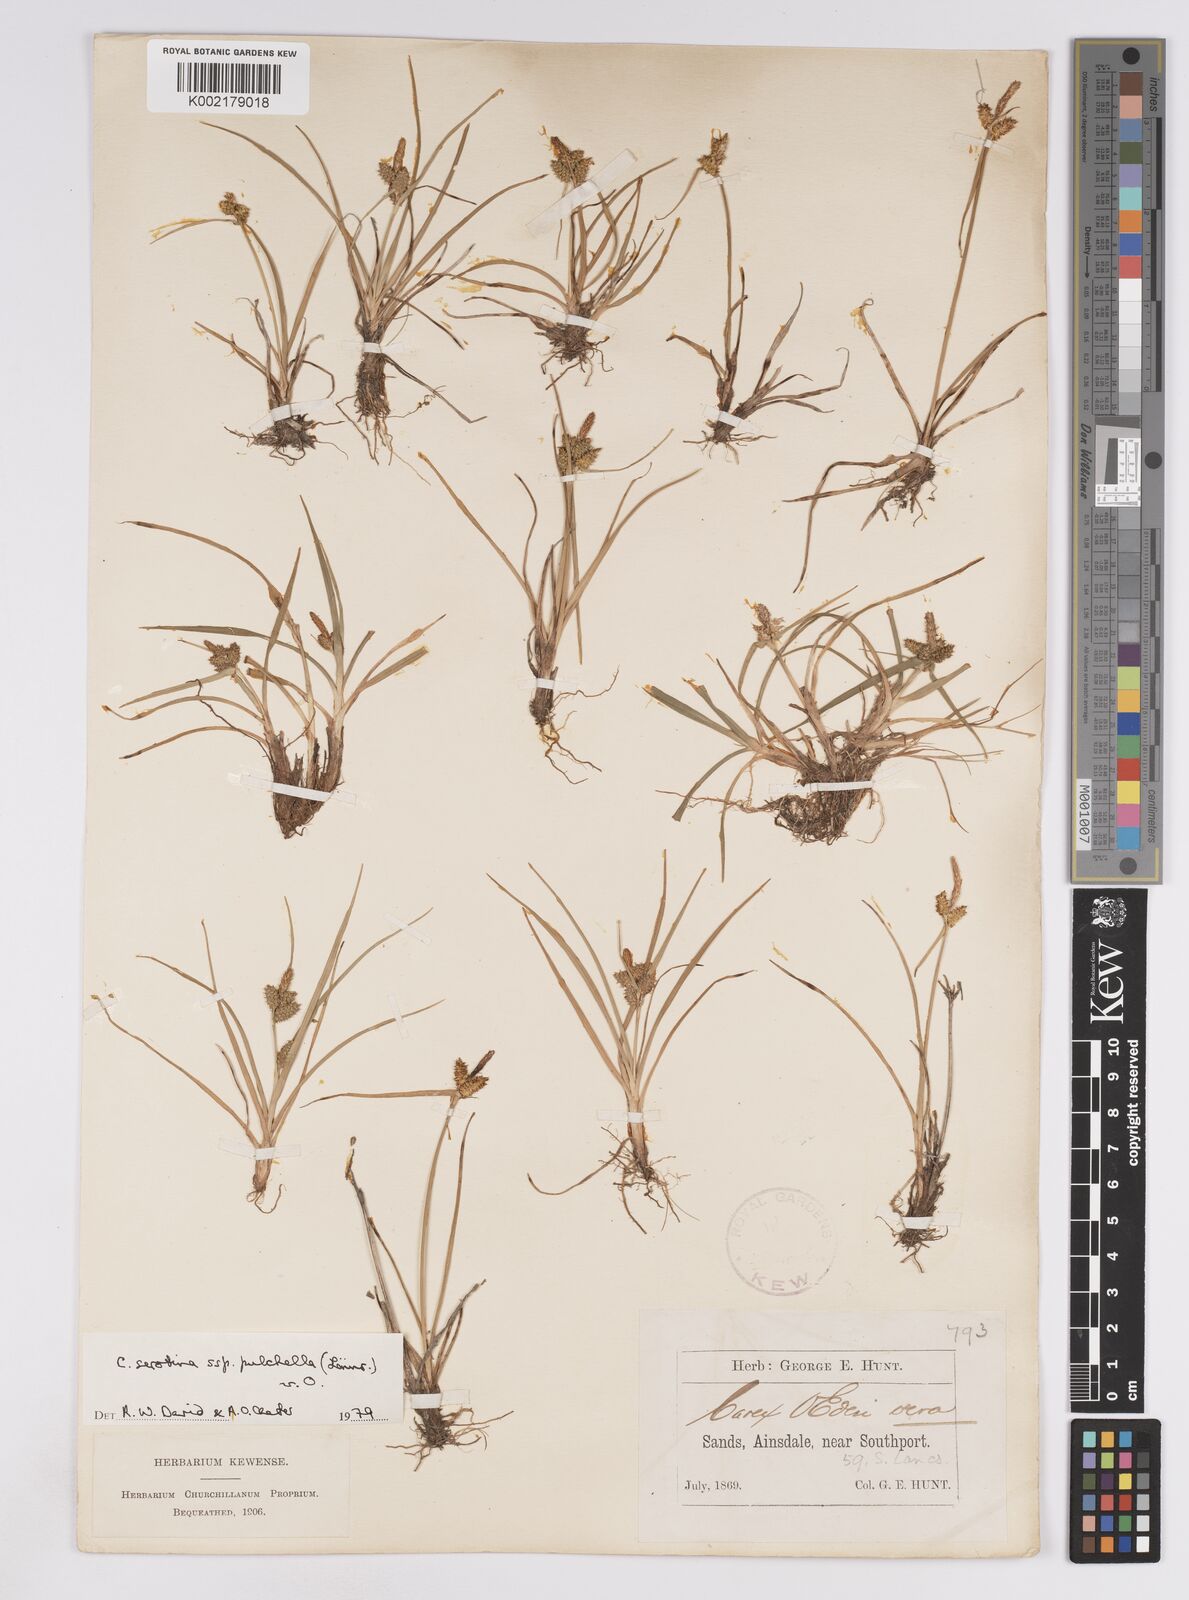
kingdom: Plantae
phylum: Tracheophyta
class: Liliopsida
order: Poales
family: Cyperaceae
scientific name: Cyperaceae
